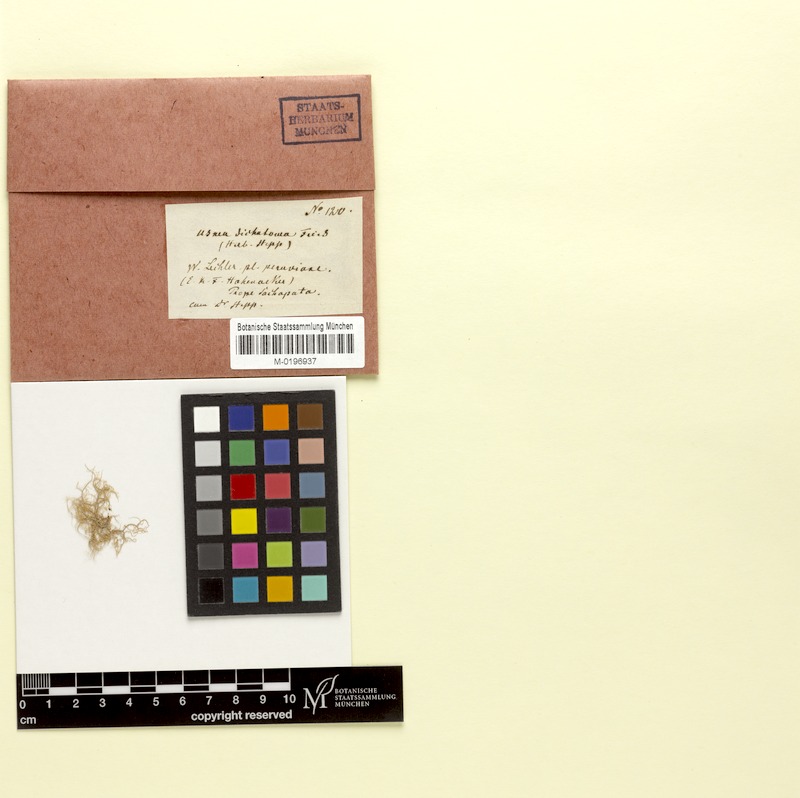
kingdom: Fungi
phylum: Ascomycota
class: Lecanoromycetes
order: Lecanorales
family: Parmeliaceae
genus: Usnea
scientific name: Usnea
